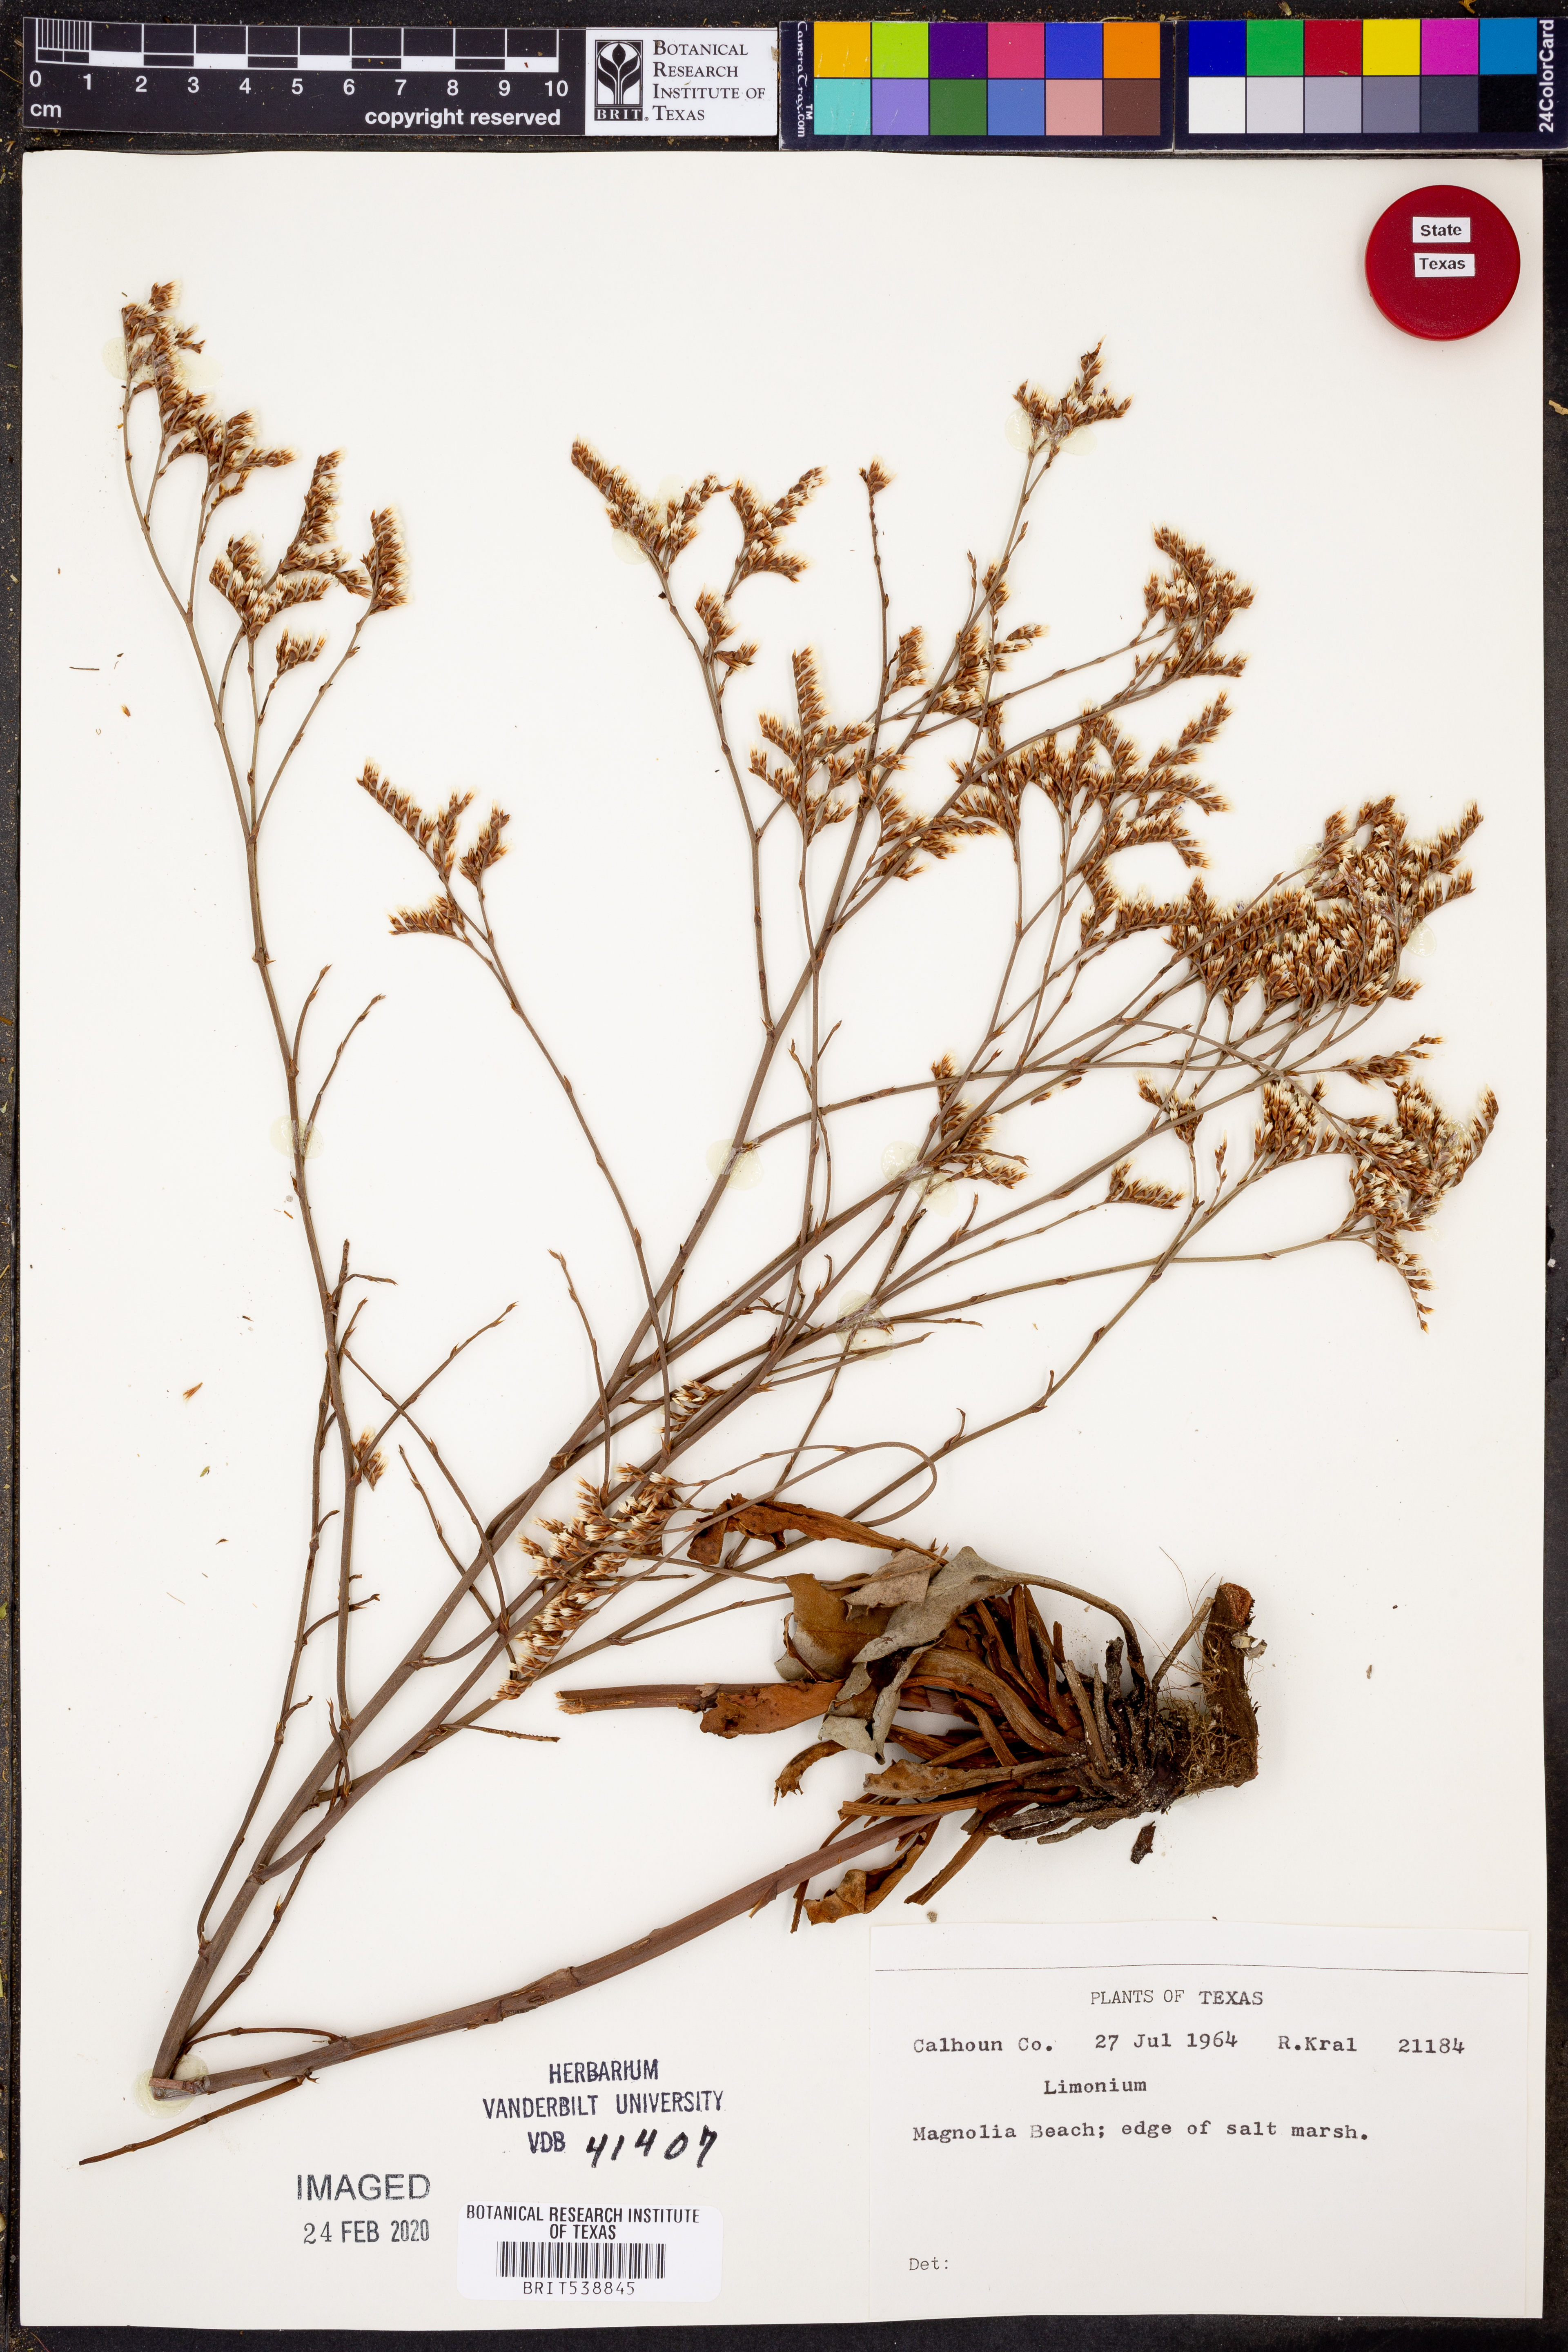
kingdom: Plantae
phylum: Tracheophyta
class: Magnoliopsida
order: Caryophyllales
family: Plumbaginaceae
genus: Limonium
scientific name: Limonium
